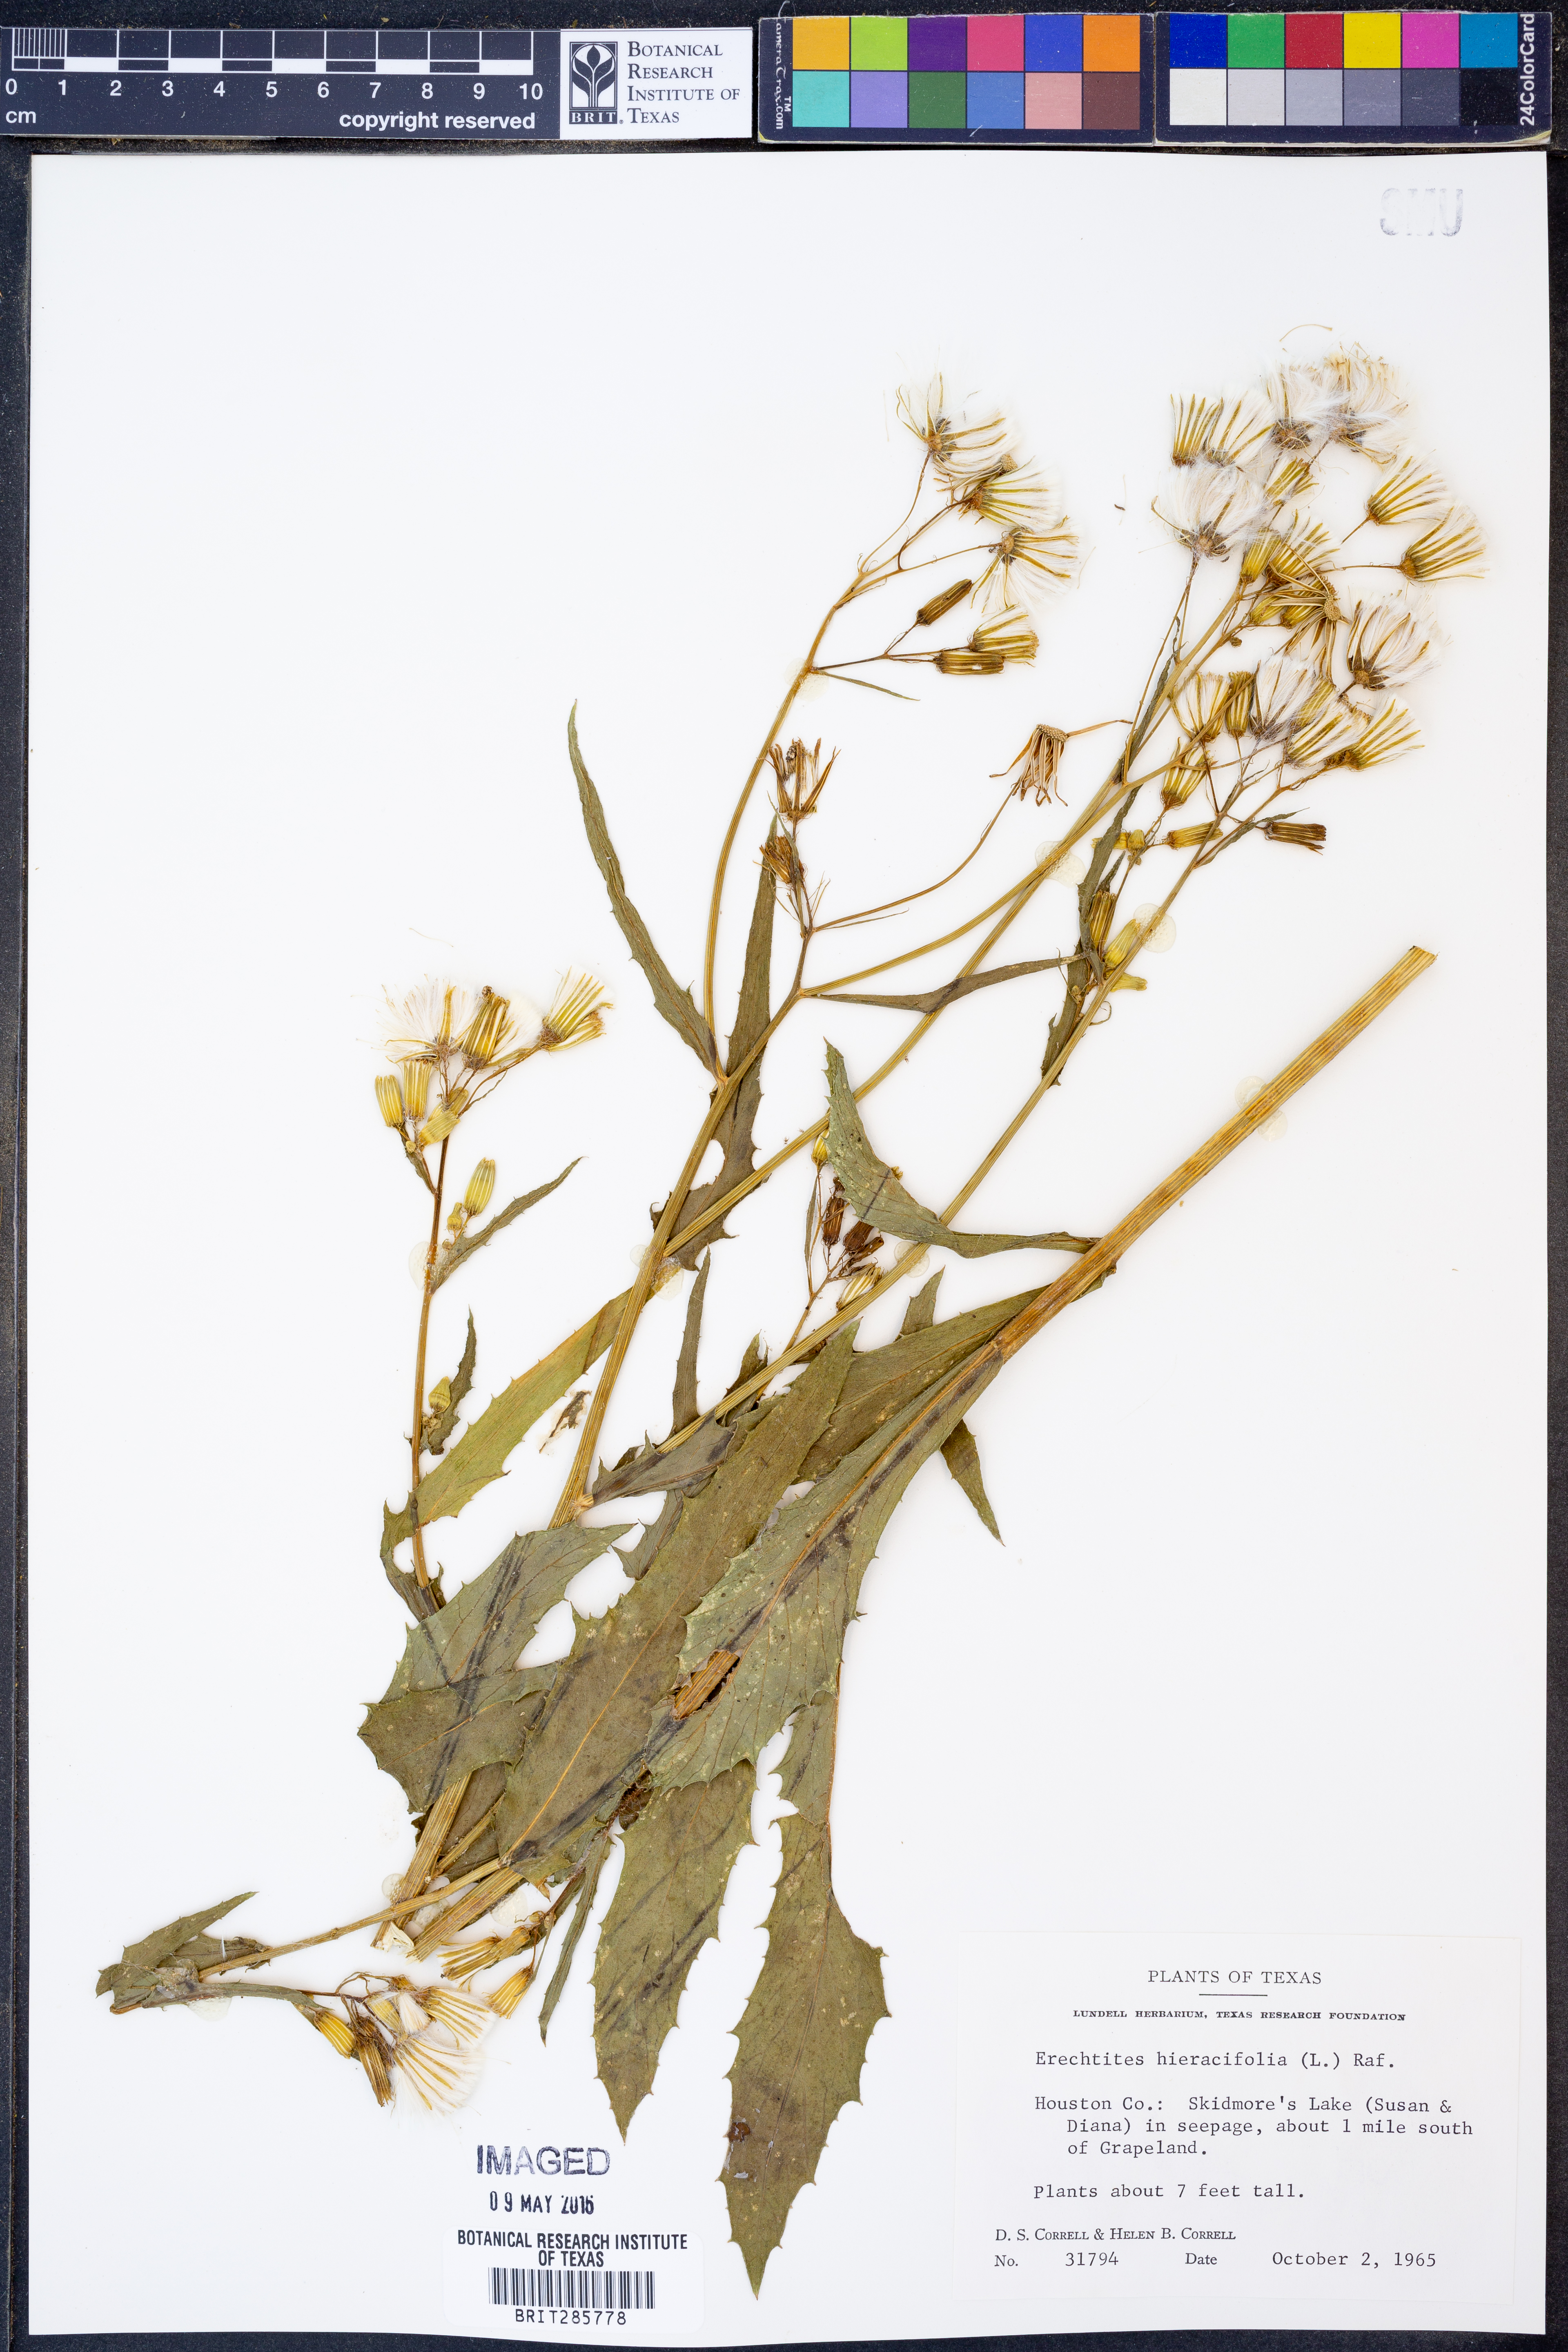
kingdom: Plantae
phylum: Tracheophyta
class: Magnoliopsida
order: Asterales
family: Asteraceae
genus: Erechtites
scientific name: Erechtites hieraciifolius
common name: American burnweed
